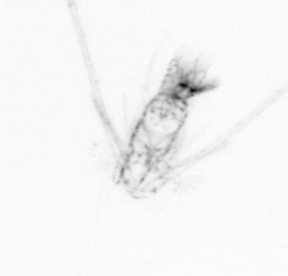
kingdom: Animalia
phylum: Arthropoda
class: Copepoda
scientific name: Copepoda
